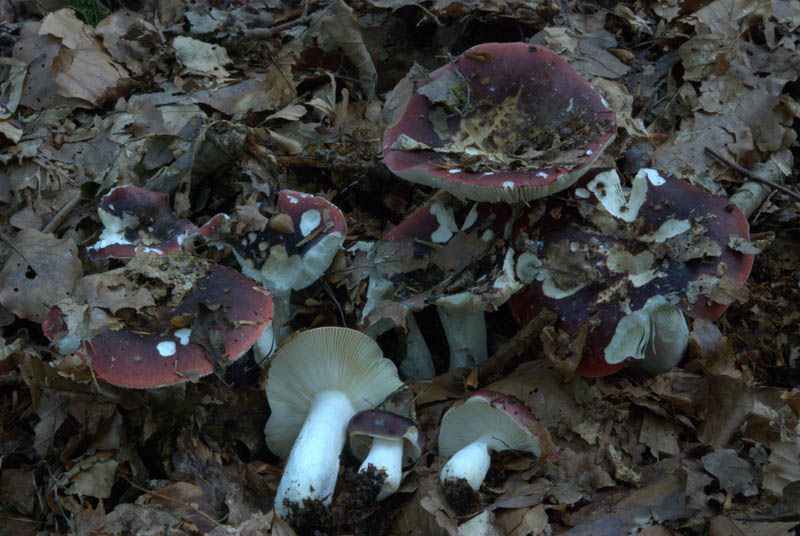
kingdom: Fungi
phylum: Basidiomycota
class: Agaricomycetes
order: Russulales
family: Russulaceae
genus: Russula
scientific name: Russula atropurpurea
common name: purpurbroget skørhat
